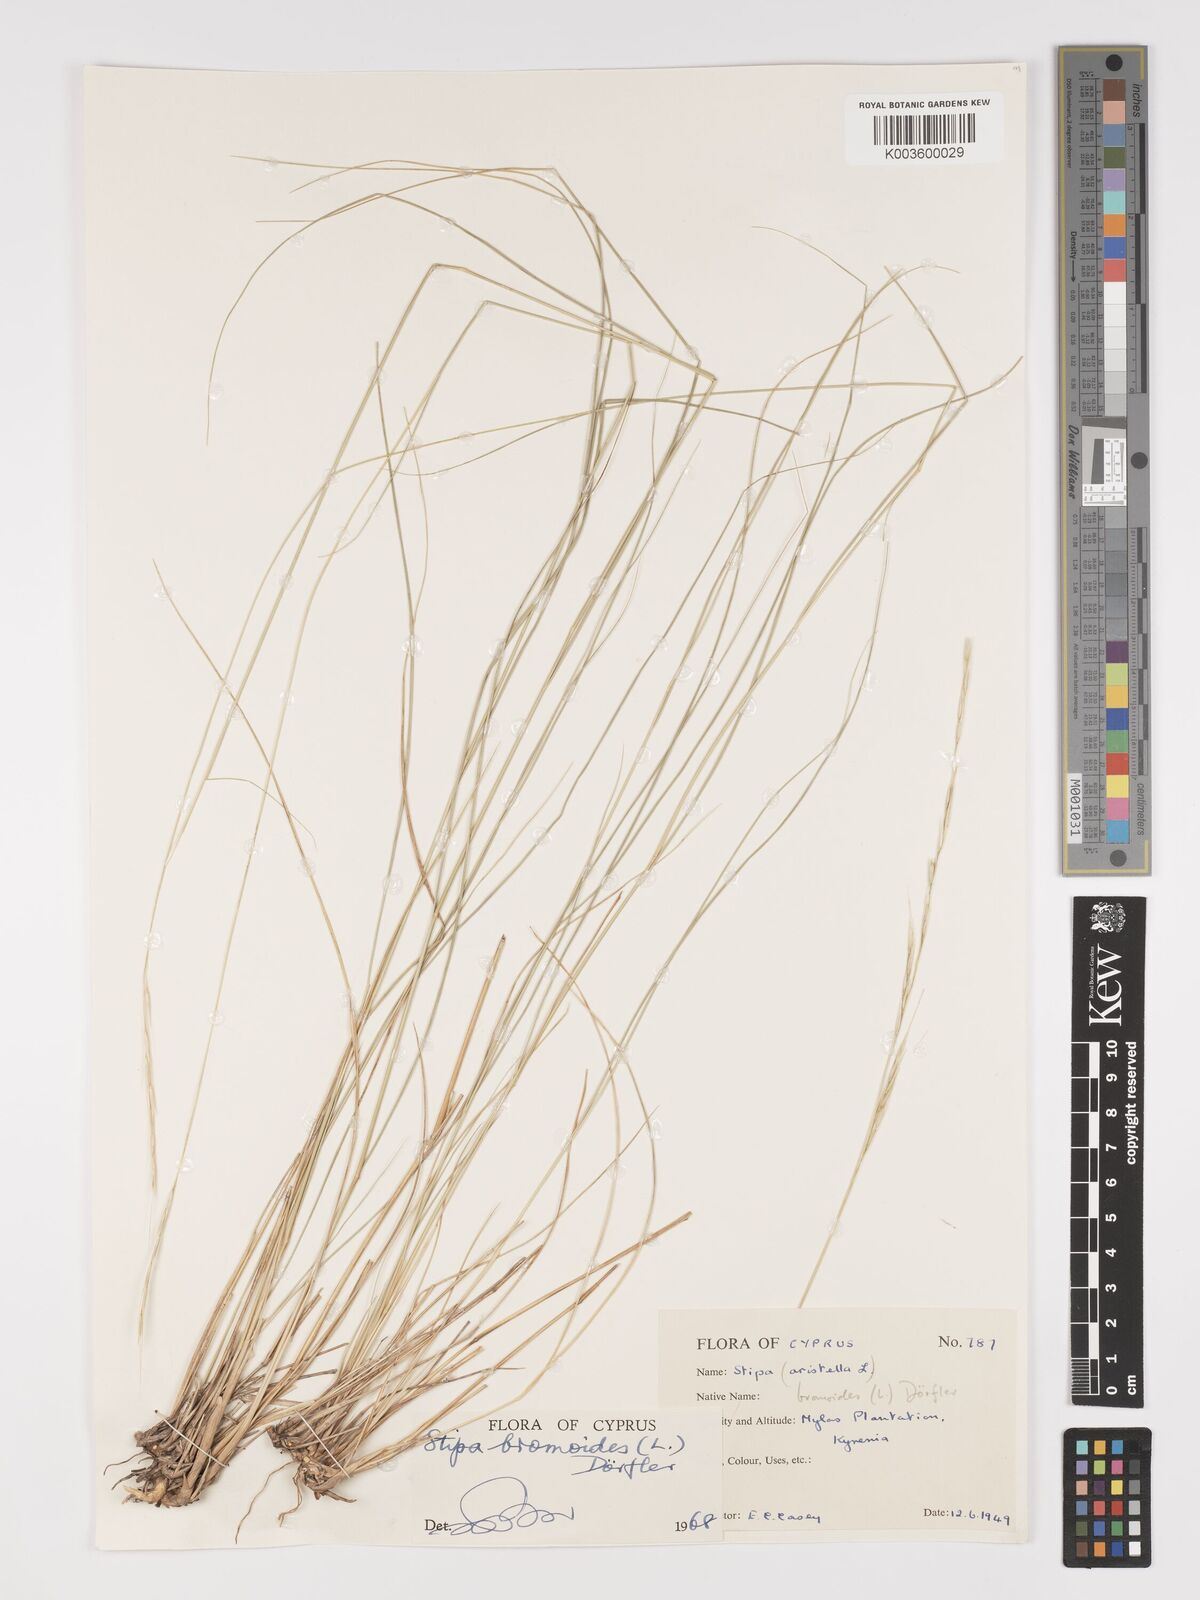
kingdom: Plantae
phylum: Tracheophyta
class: Liliopsida
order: Poales
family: Poaceae
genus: Achnatherum
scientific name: Achnatherum bromoides
